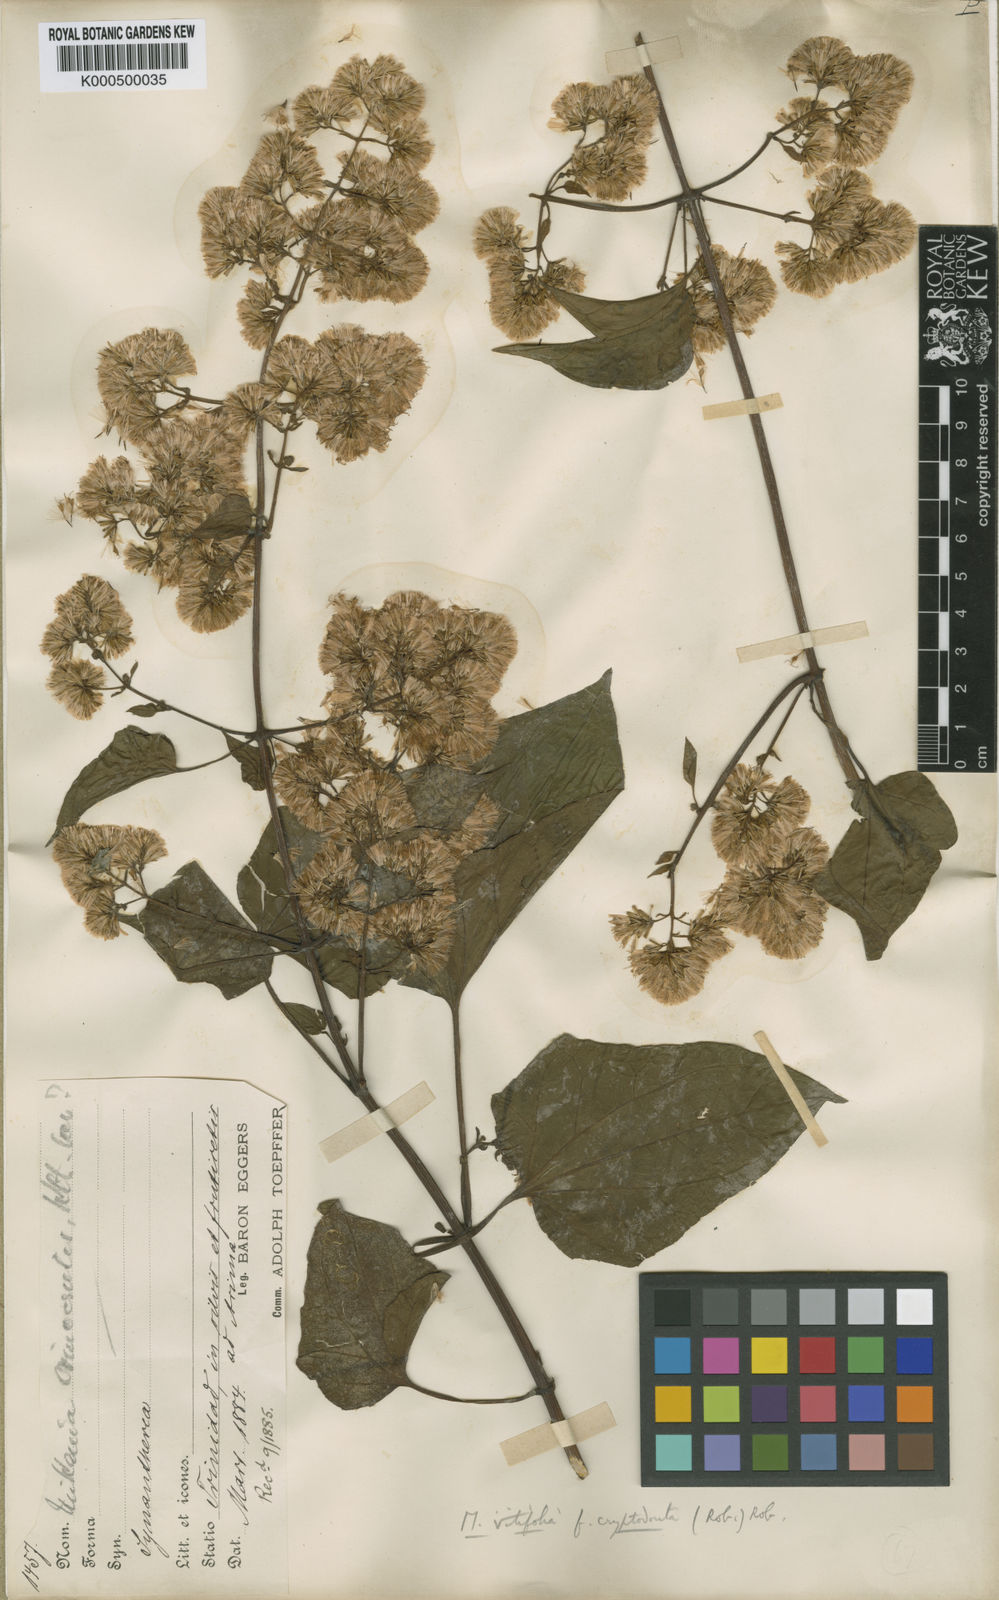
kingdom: Plantae
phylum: Tracheophyta
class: Magnoliopsida
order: Asterales
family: Asteraceae
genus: Mikania
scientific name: Mikania vitifolia
